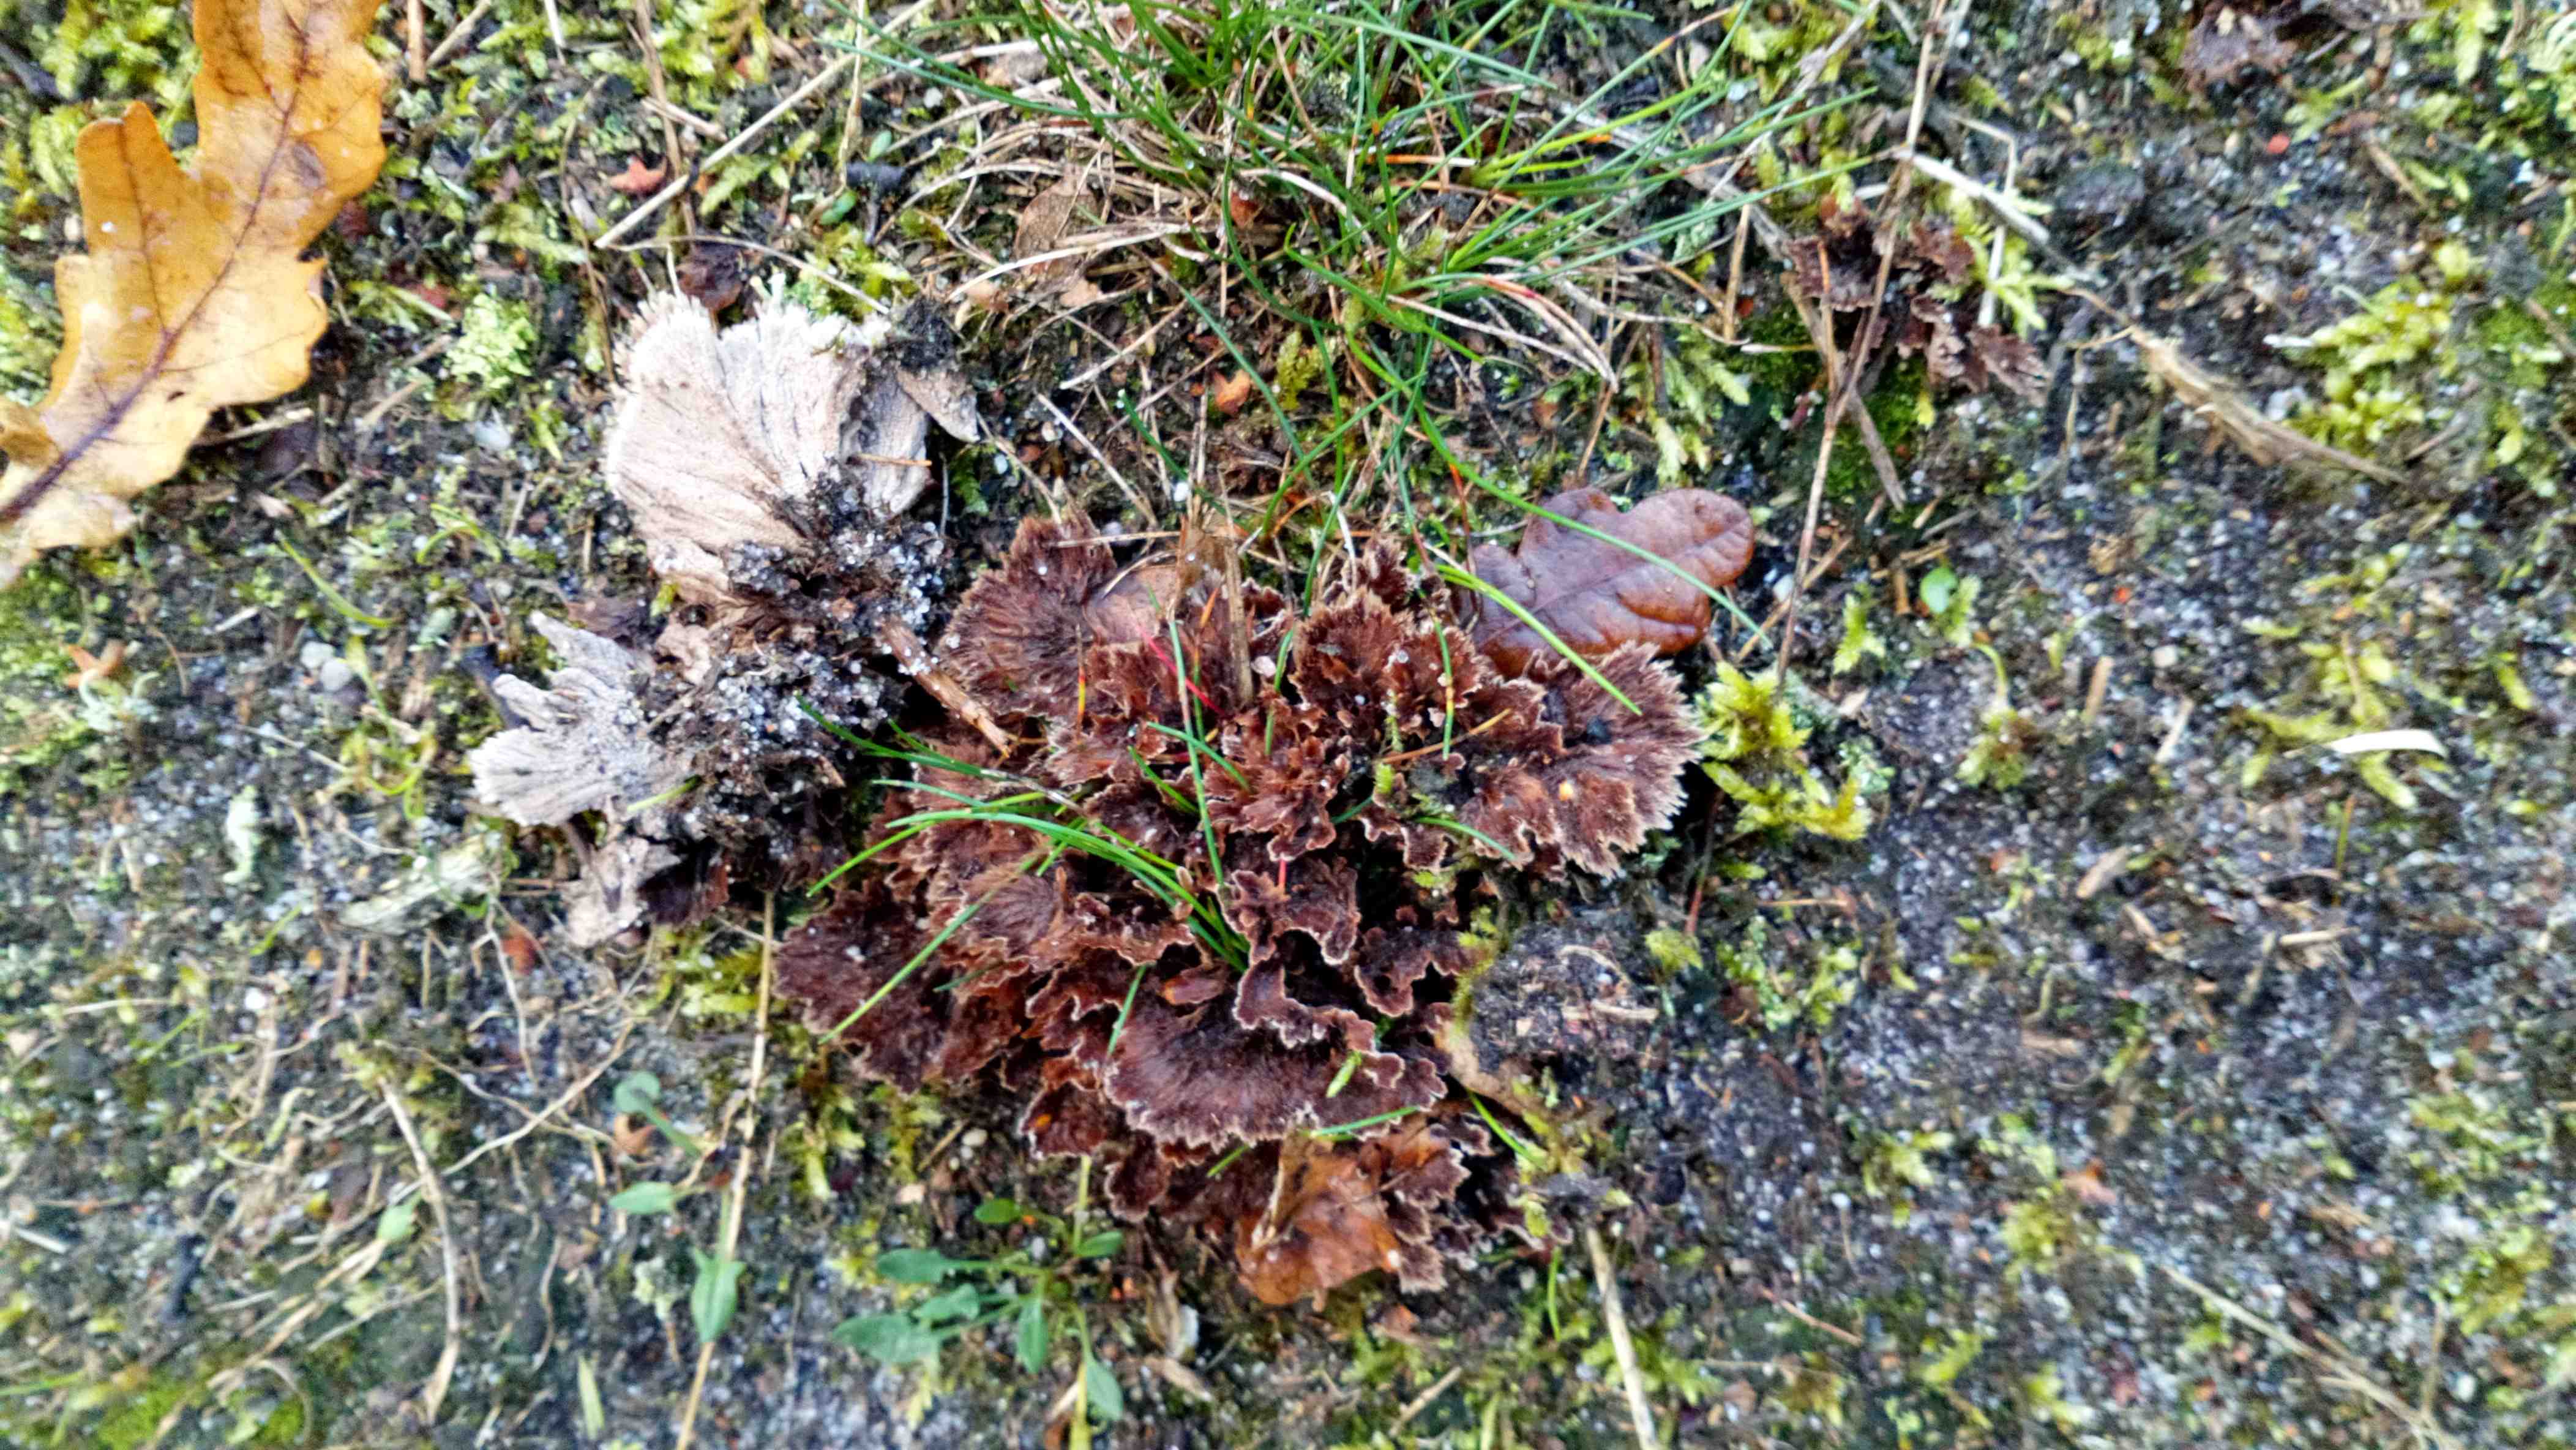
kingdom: Fungi
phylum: Basidiomycota
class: Agaricomycetes
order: Thelephorales
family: Thelephoraceae
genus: Thelephora
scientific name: Thelephora terrestris
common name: fliget frynsesvamp
